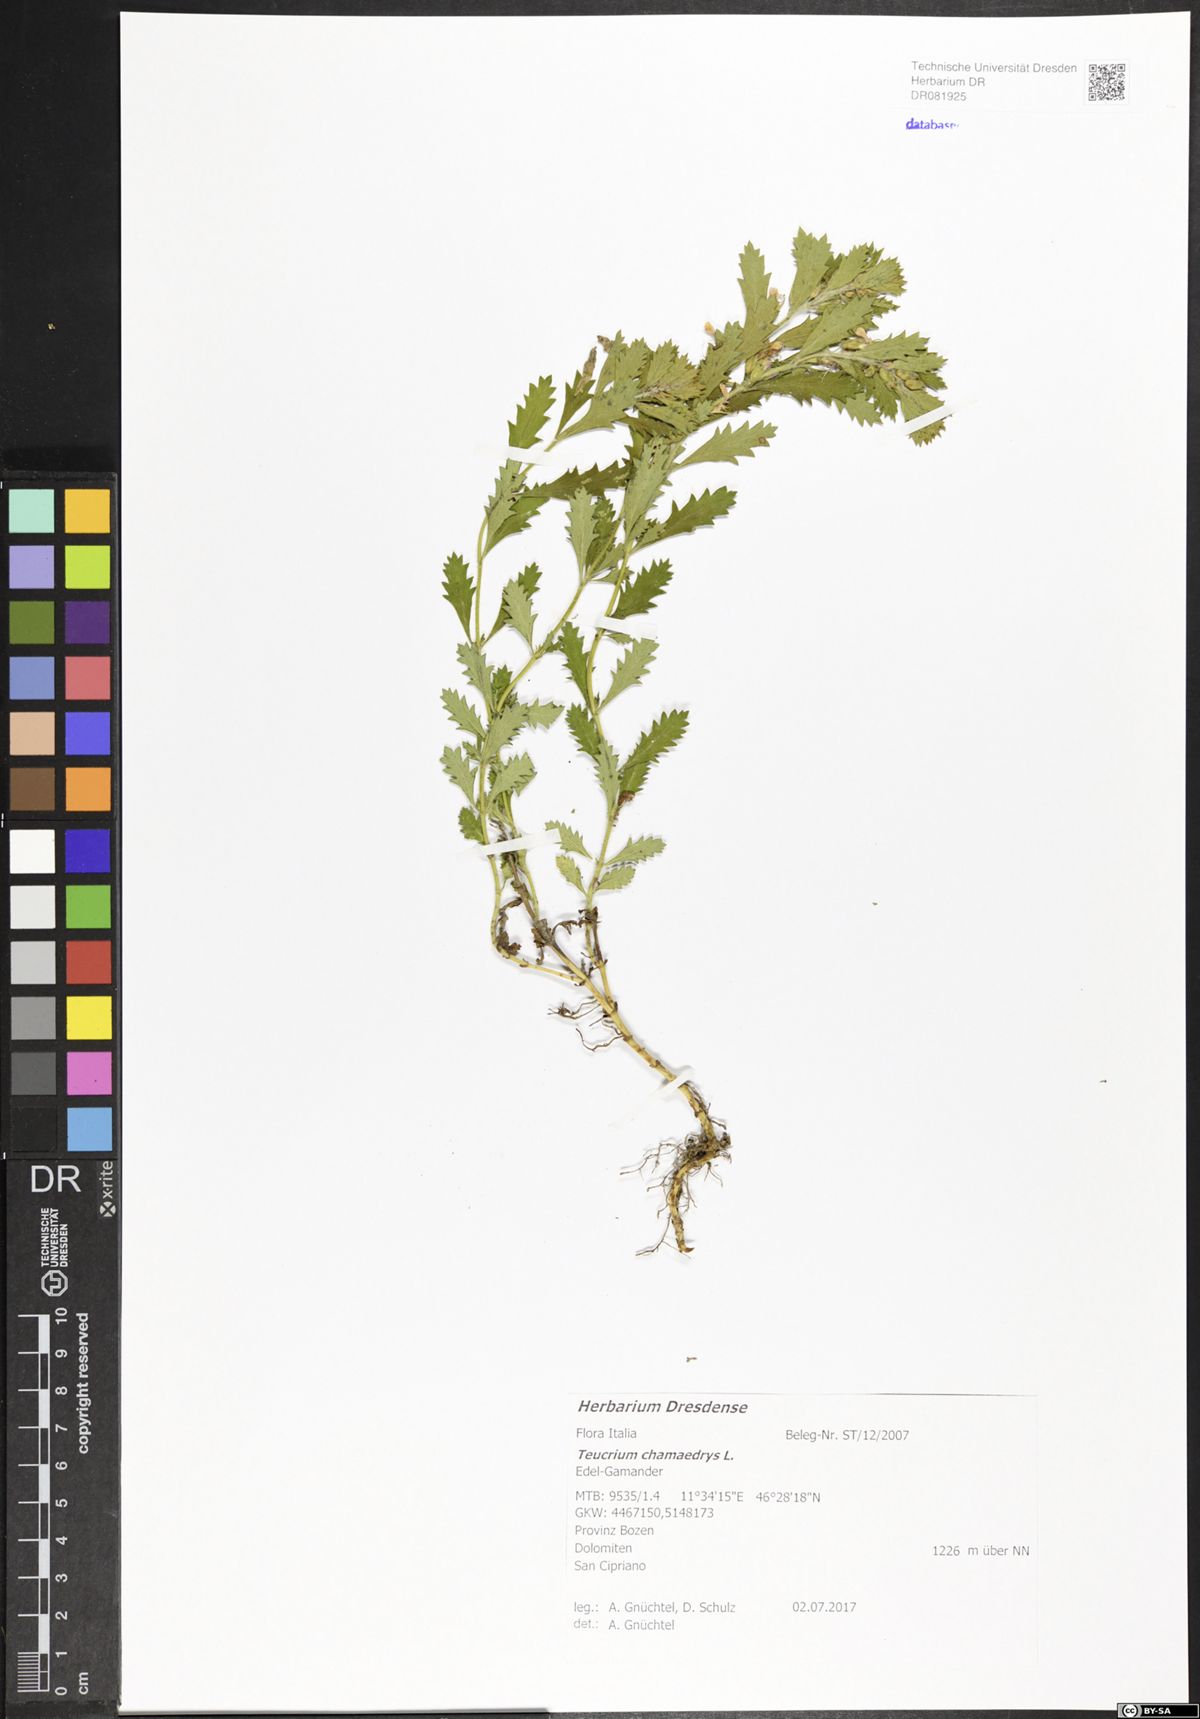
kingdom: Plantae
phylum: Tracheophyta
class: Magnoliopsida
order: Lamiales
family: Lamiaceae
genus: Teucrium
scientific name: Teucrium chamaedrys
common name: Wall germander
